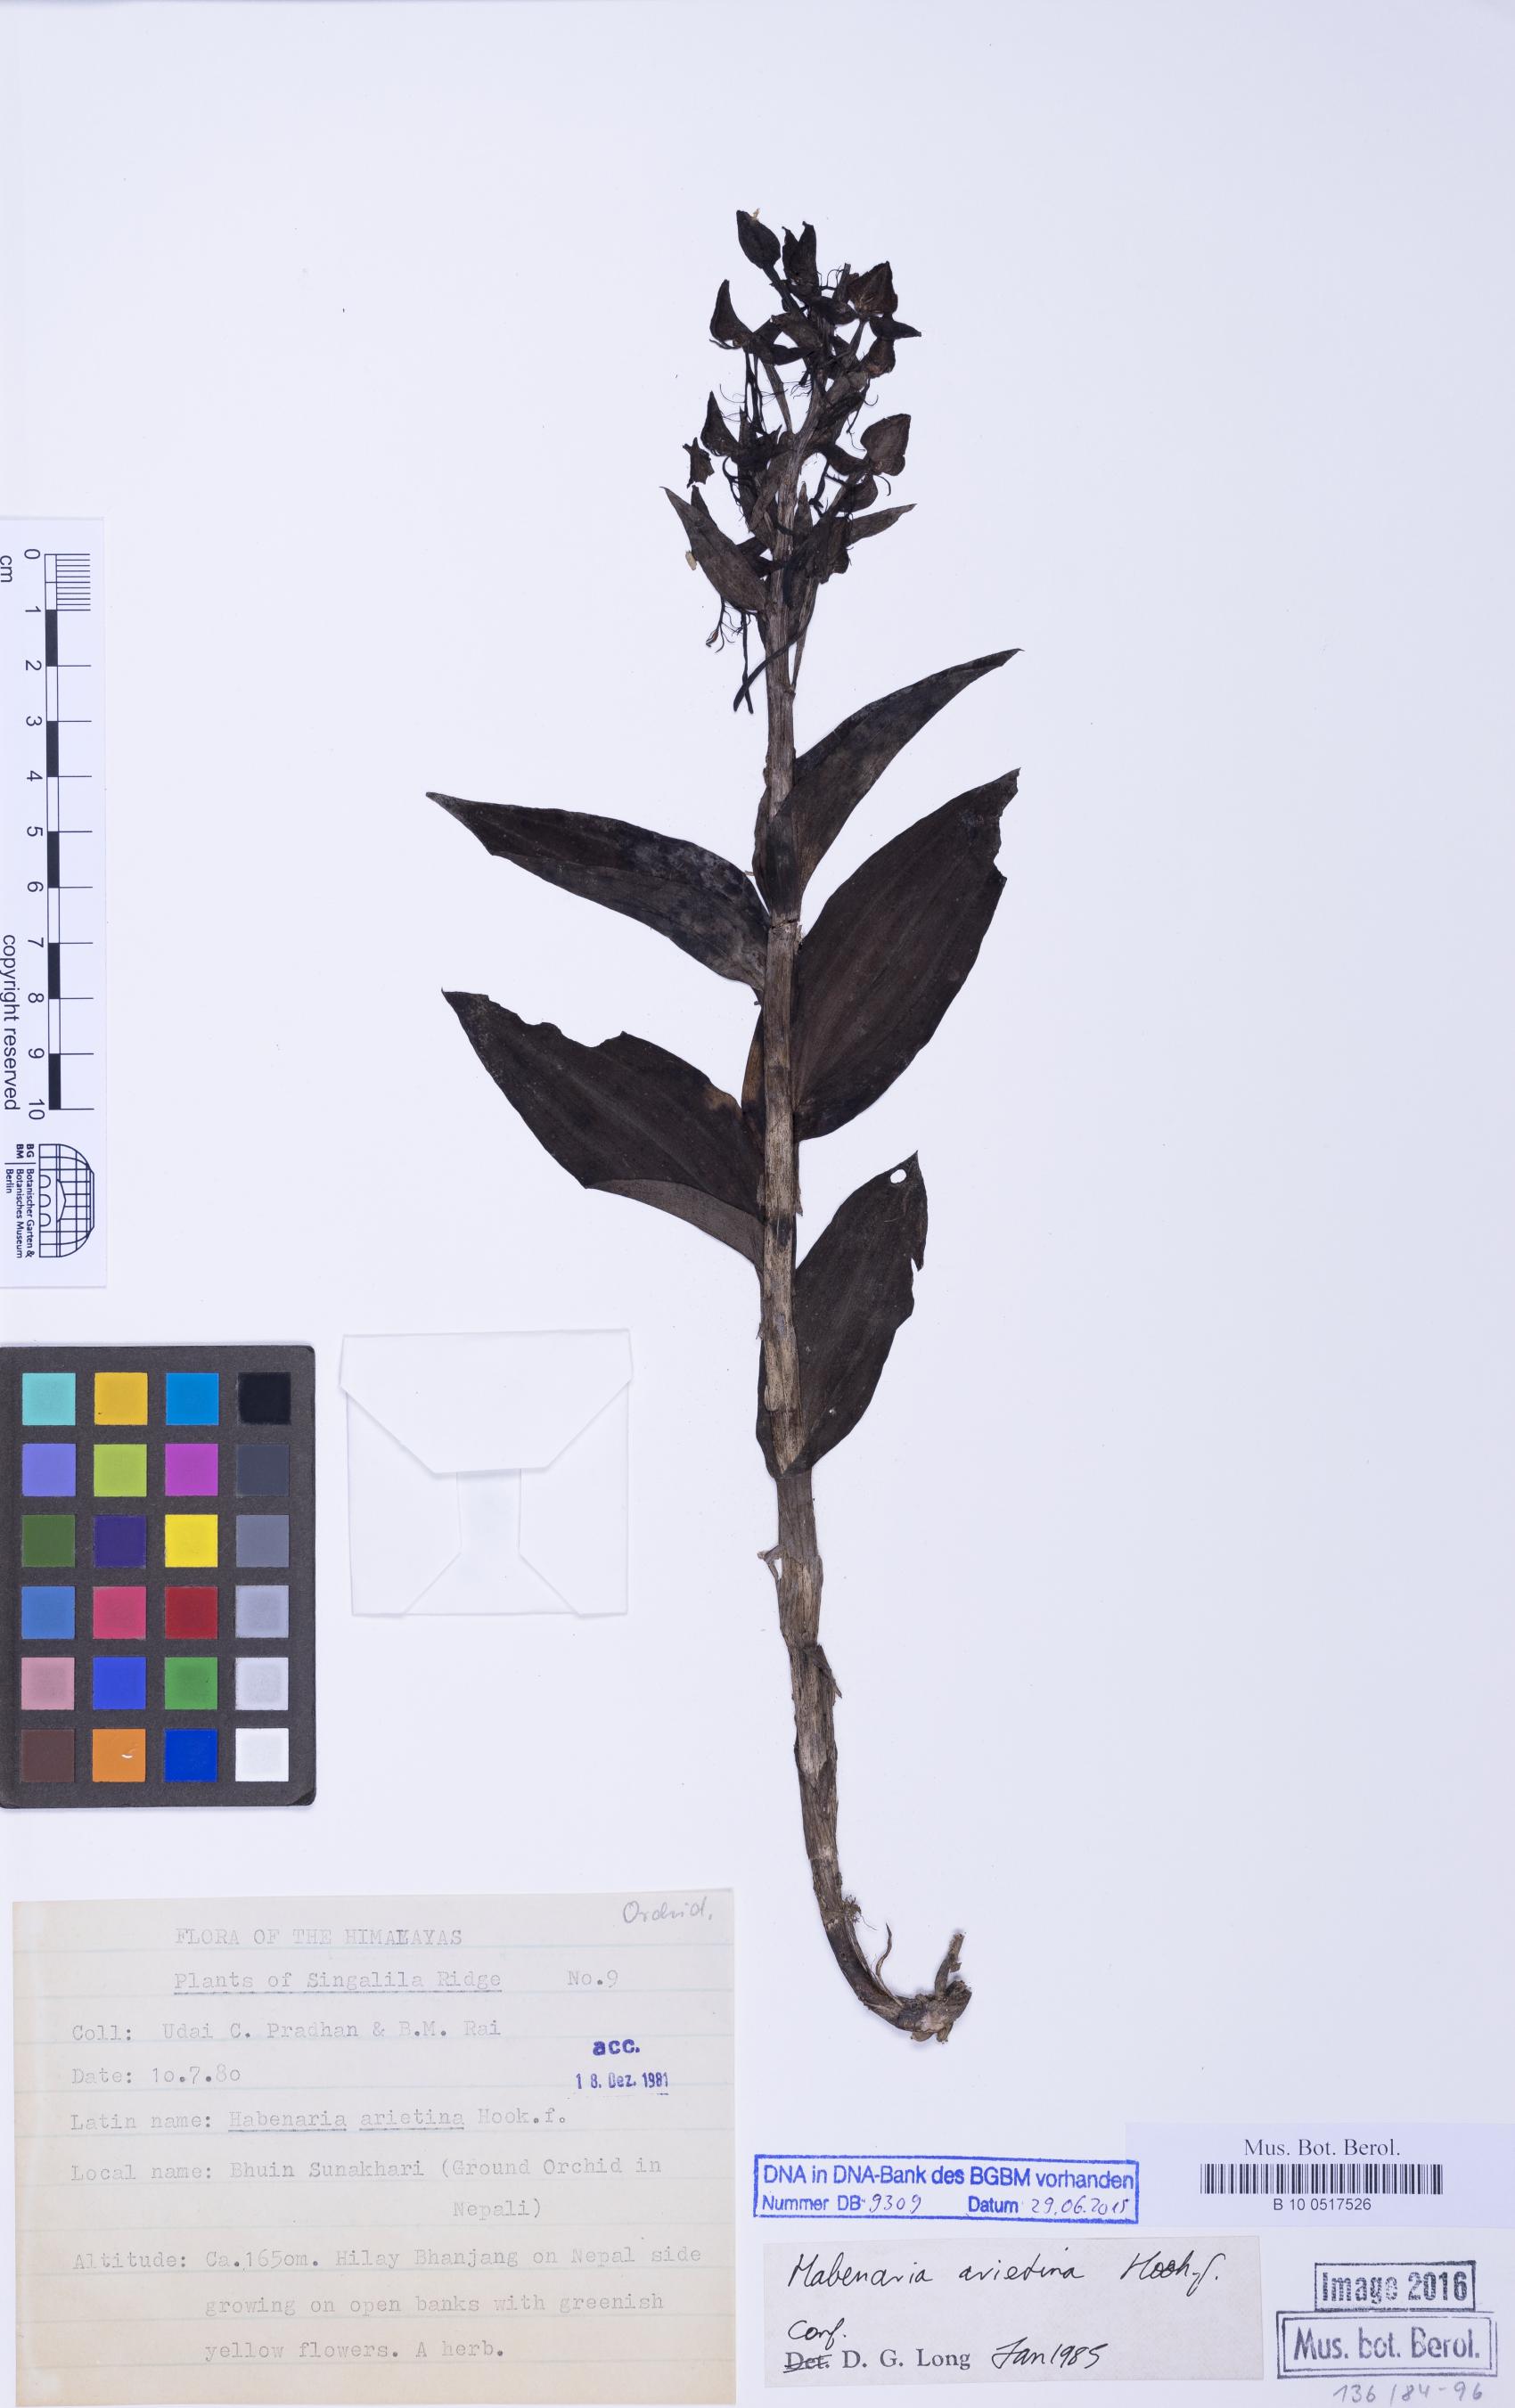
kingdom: Plantae
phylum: Tracheophyta
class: Liliopsida
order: Asparagales
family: Orchidaceae
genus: Habenaria
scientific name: Habenaria arietina
